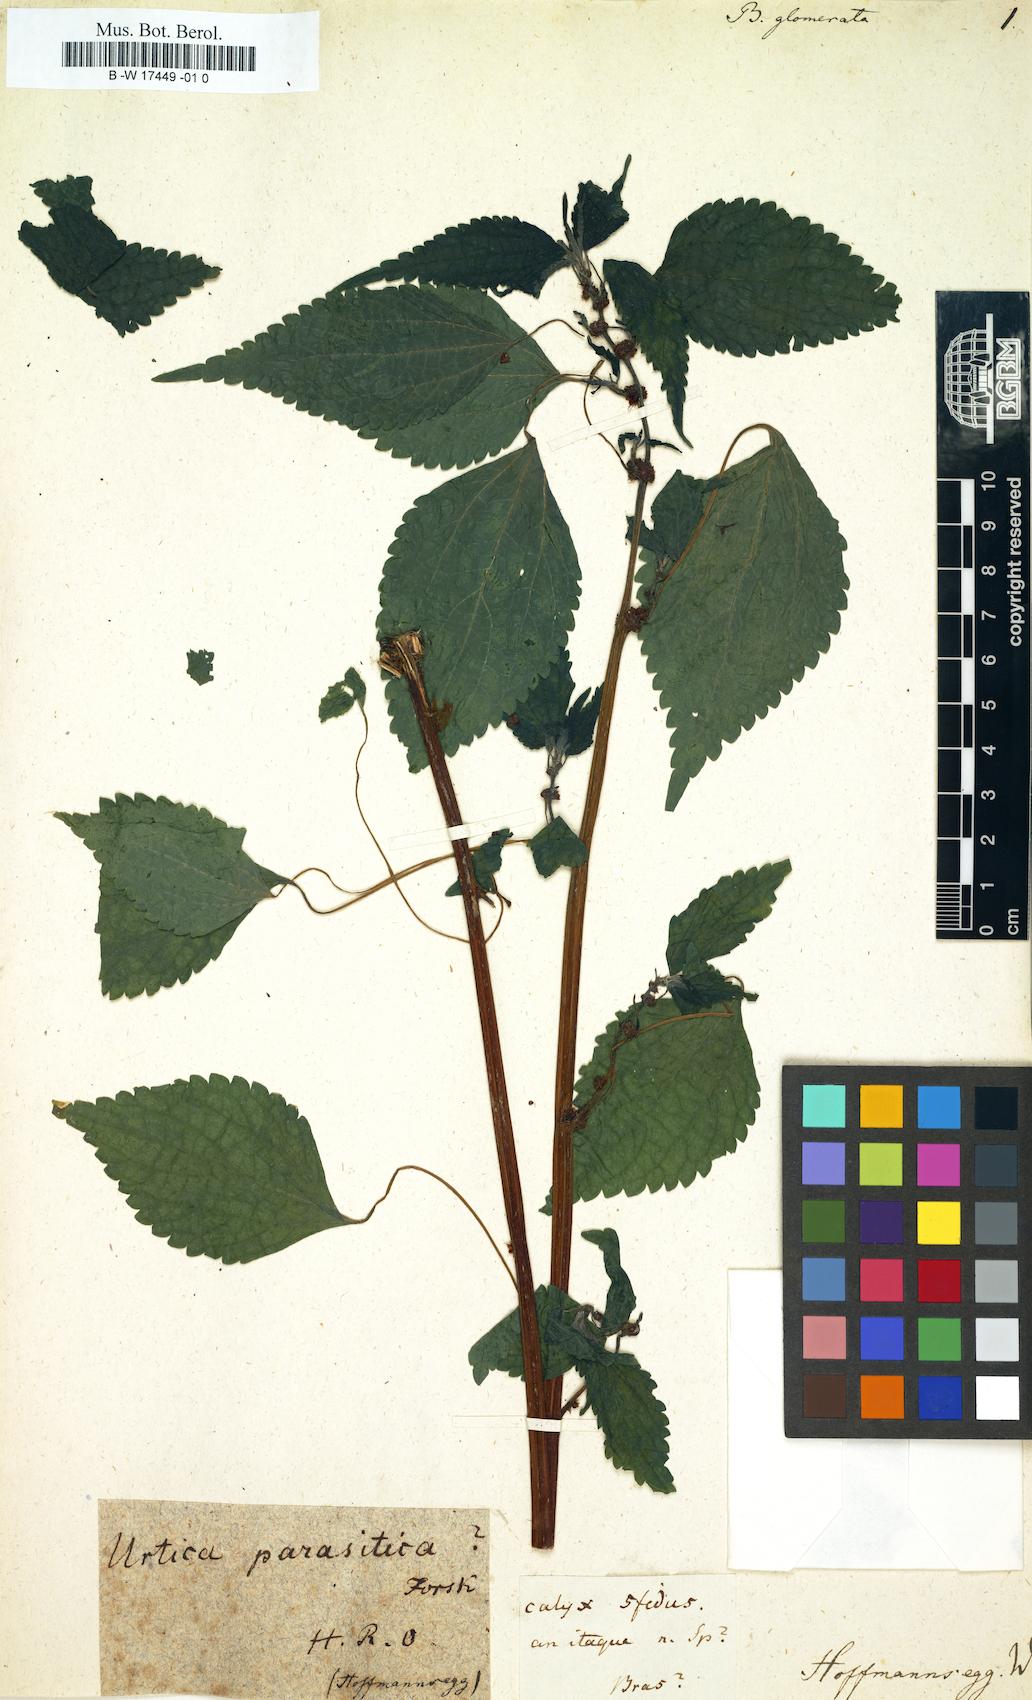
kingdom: Plantae
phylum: Tracheophyta
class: Magnoliopsida
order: Rosales
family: Urticaceae
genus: Boehmeria
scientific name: Boehmeria
